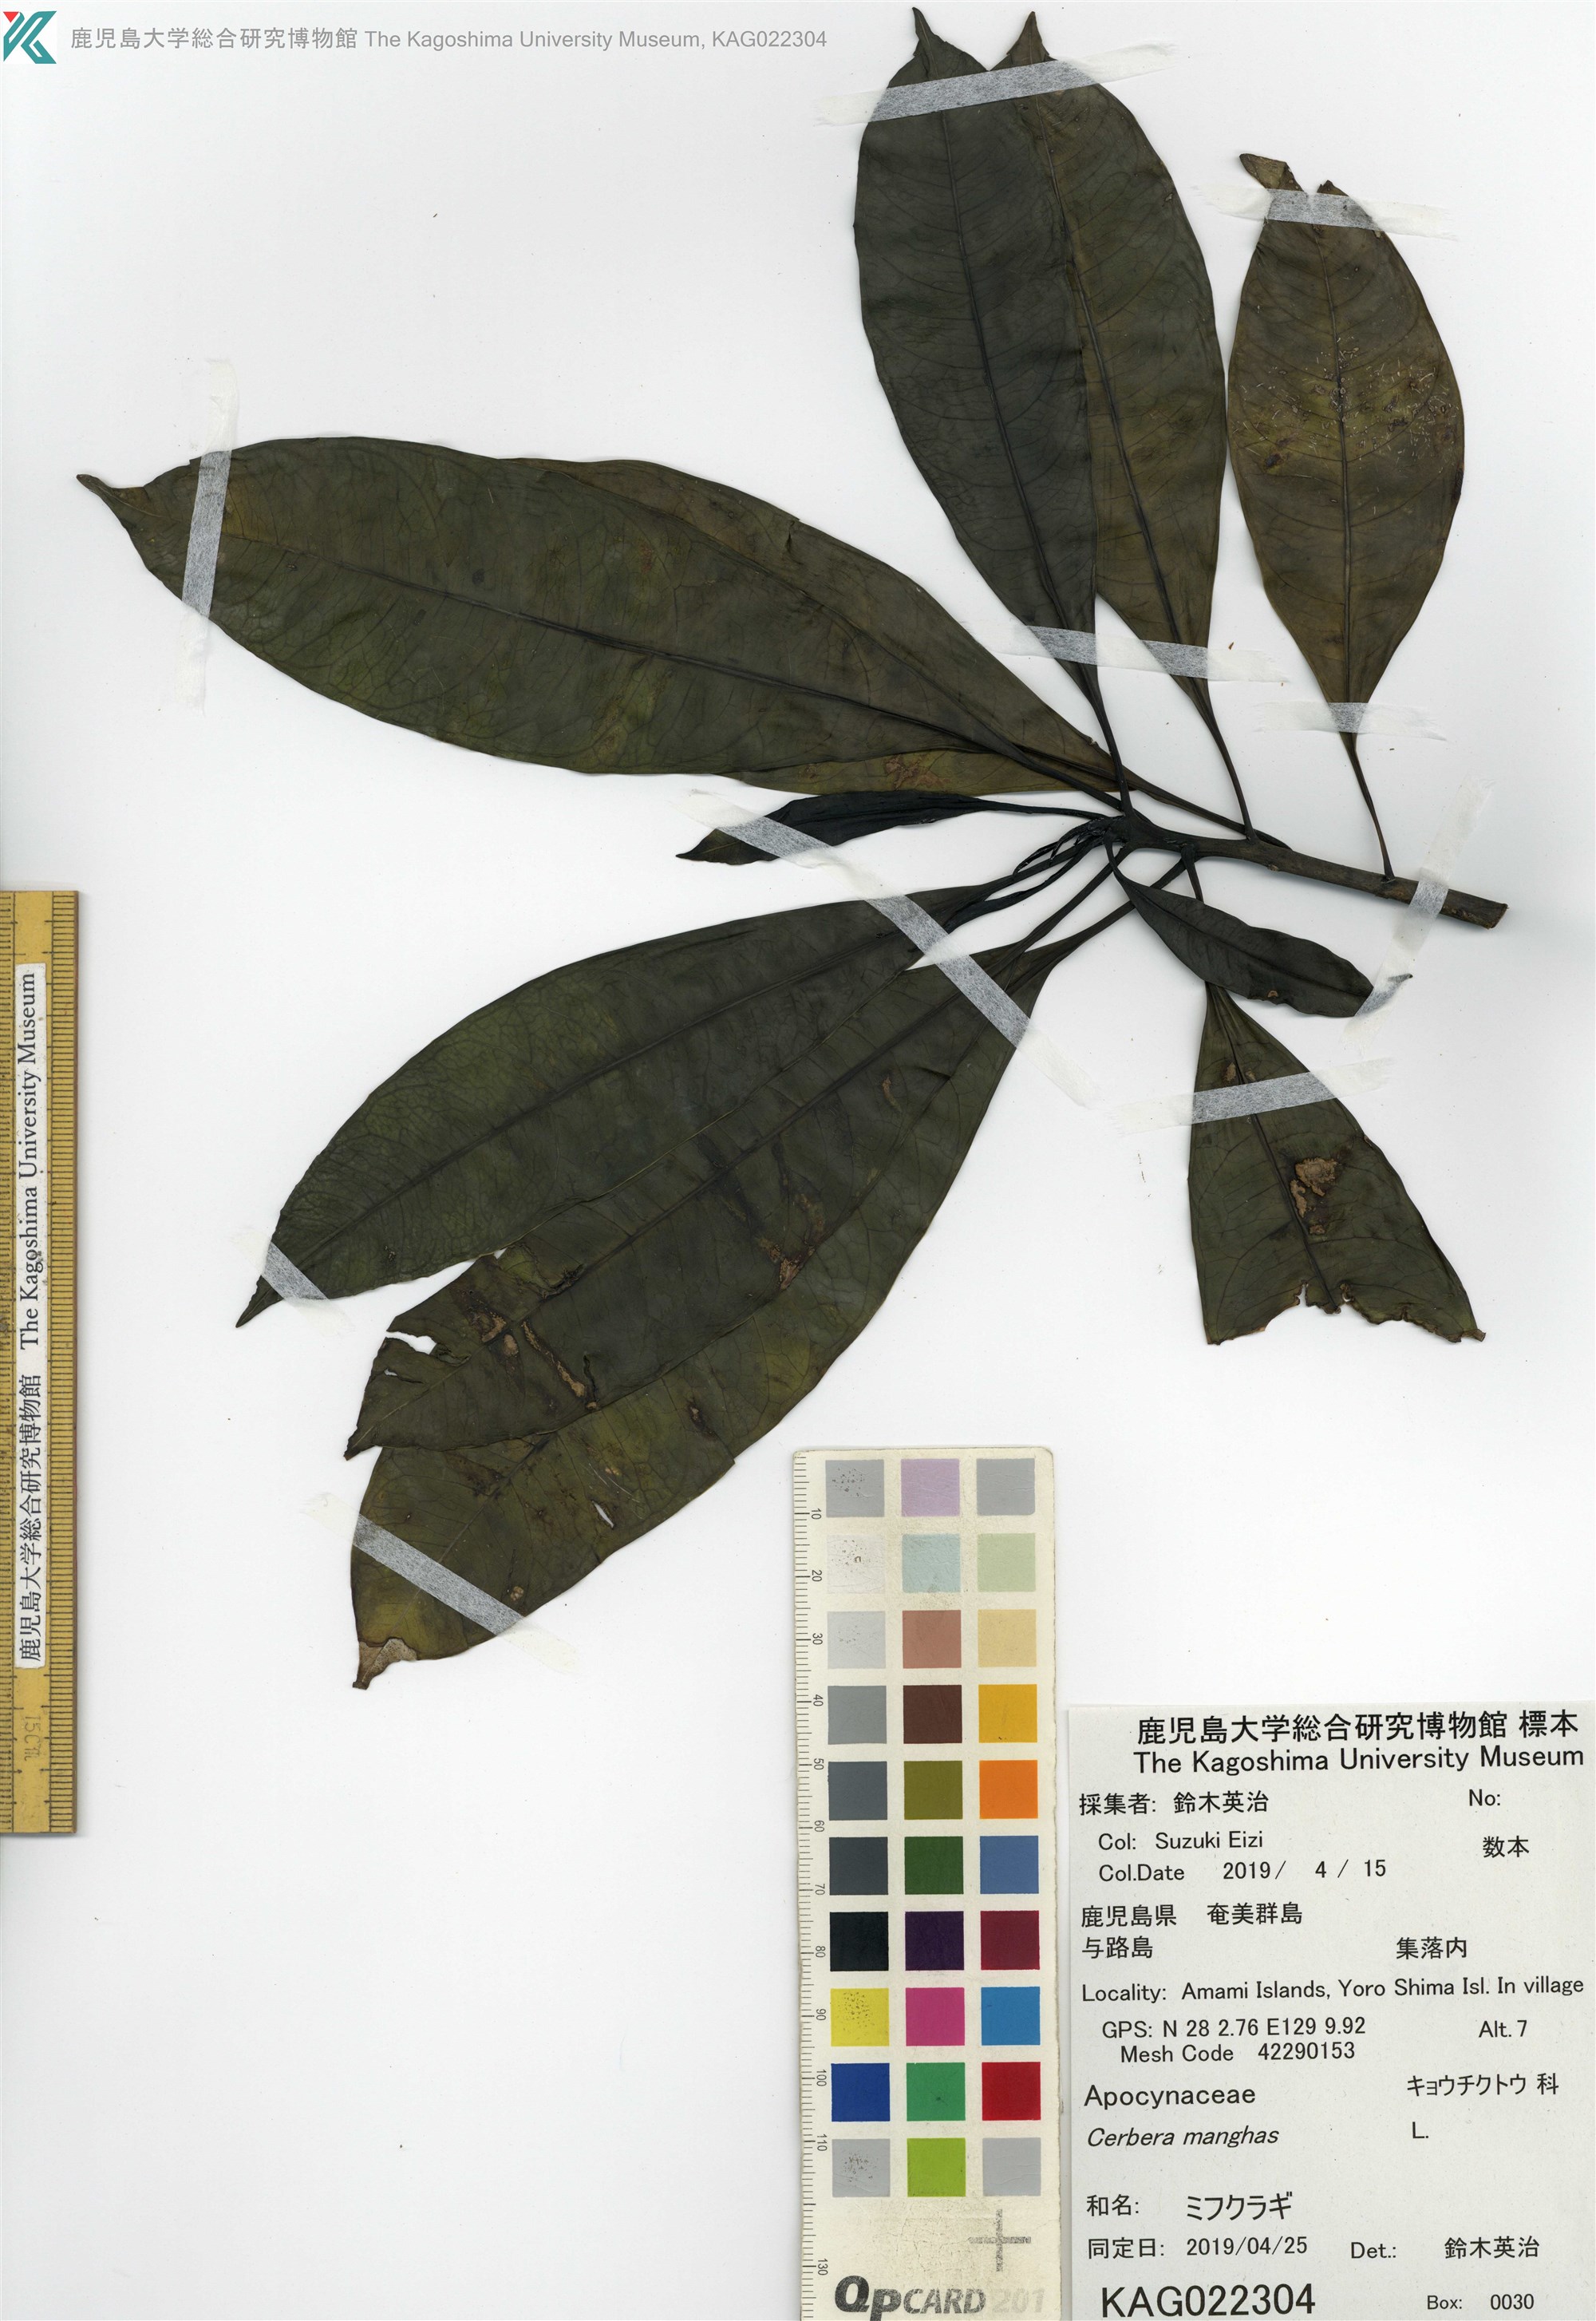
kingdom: Plantae
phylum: Tracheophyta
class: Magnoliopsida
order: Gentianales
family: Apocynaceae
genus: Cerbera
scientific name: Cerbera manghas
